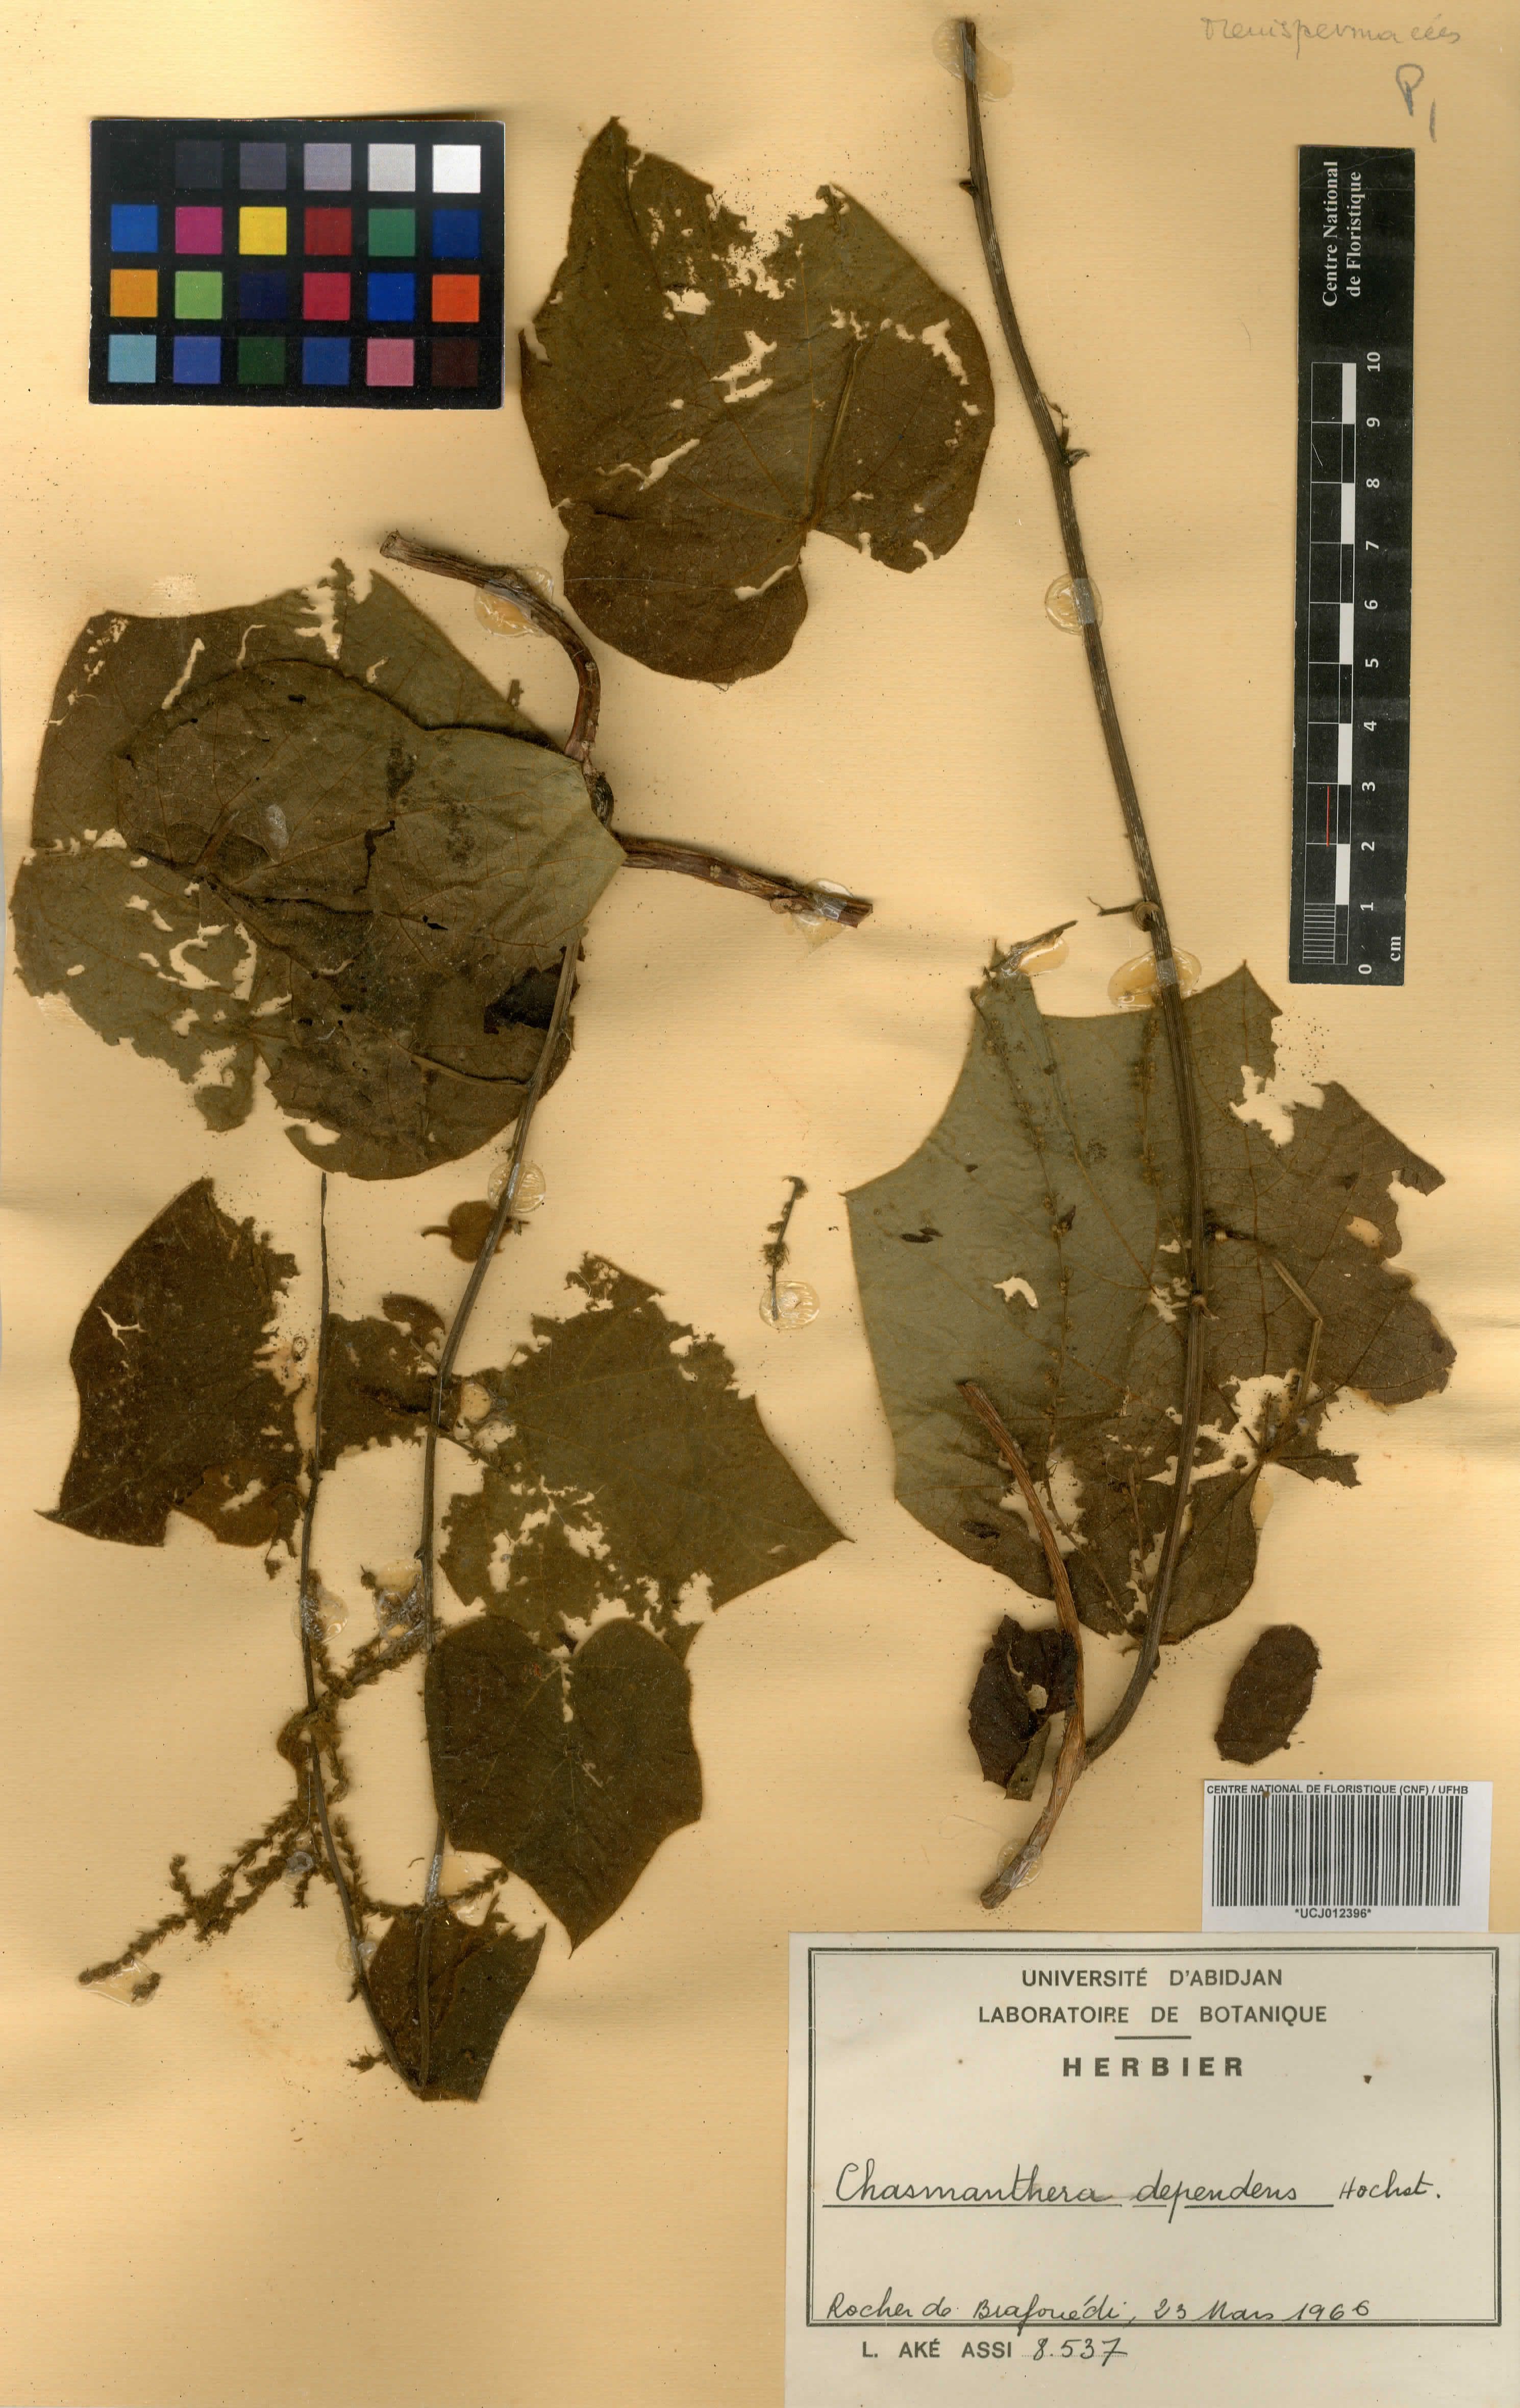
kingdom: Plantae
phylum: Tracheophyta
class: Magnoliopsida
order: Ranunculales
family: Menispermaceae
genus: Chasmanthera
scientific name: Chasmanthera dependens
